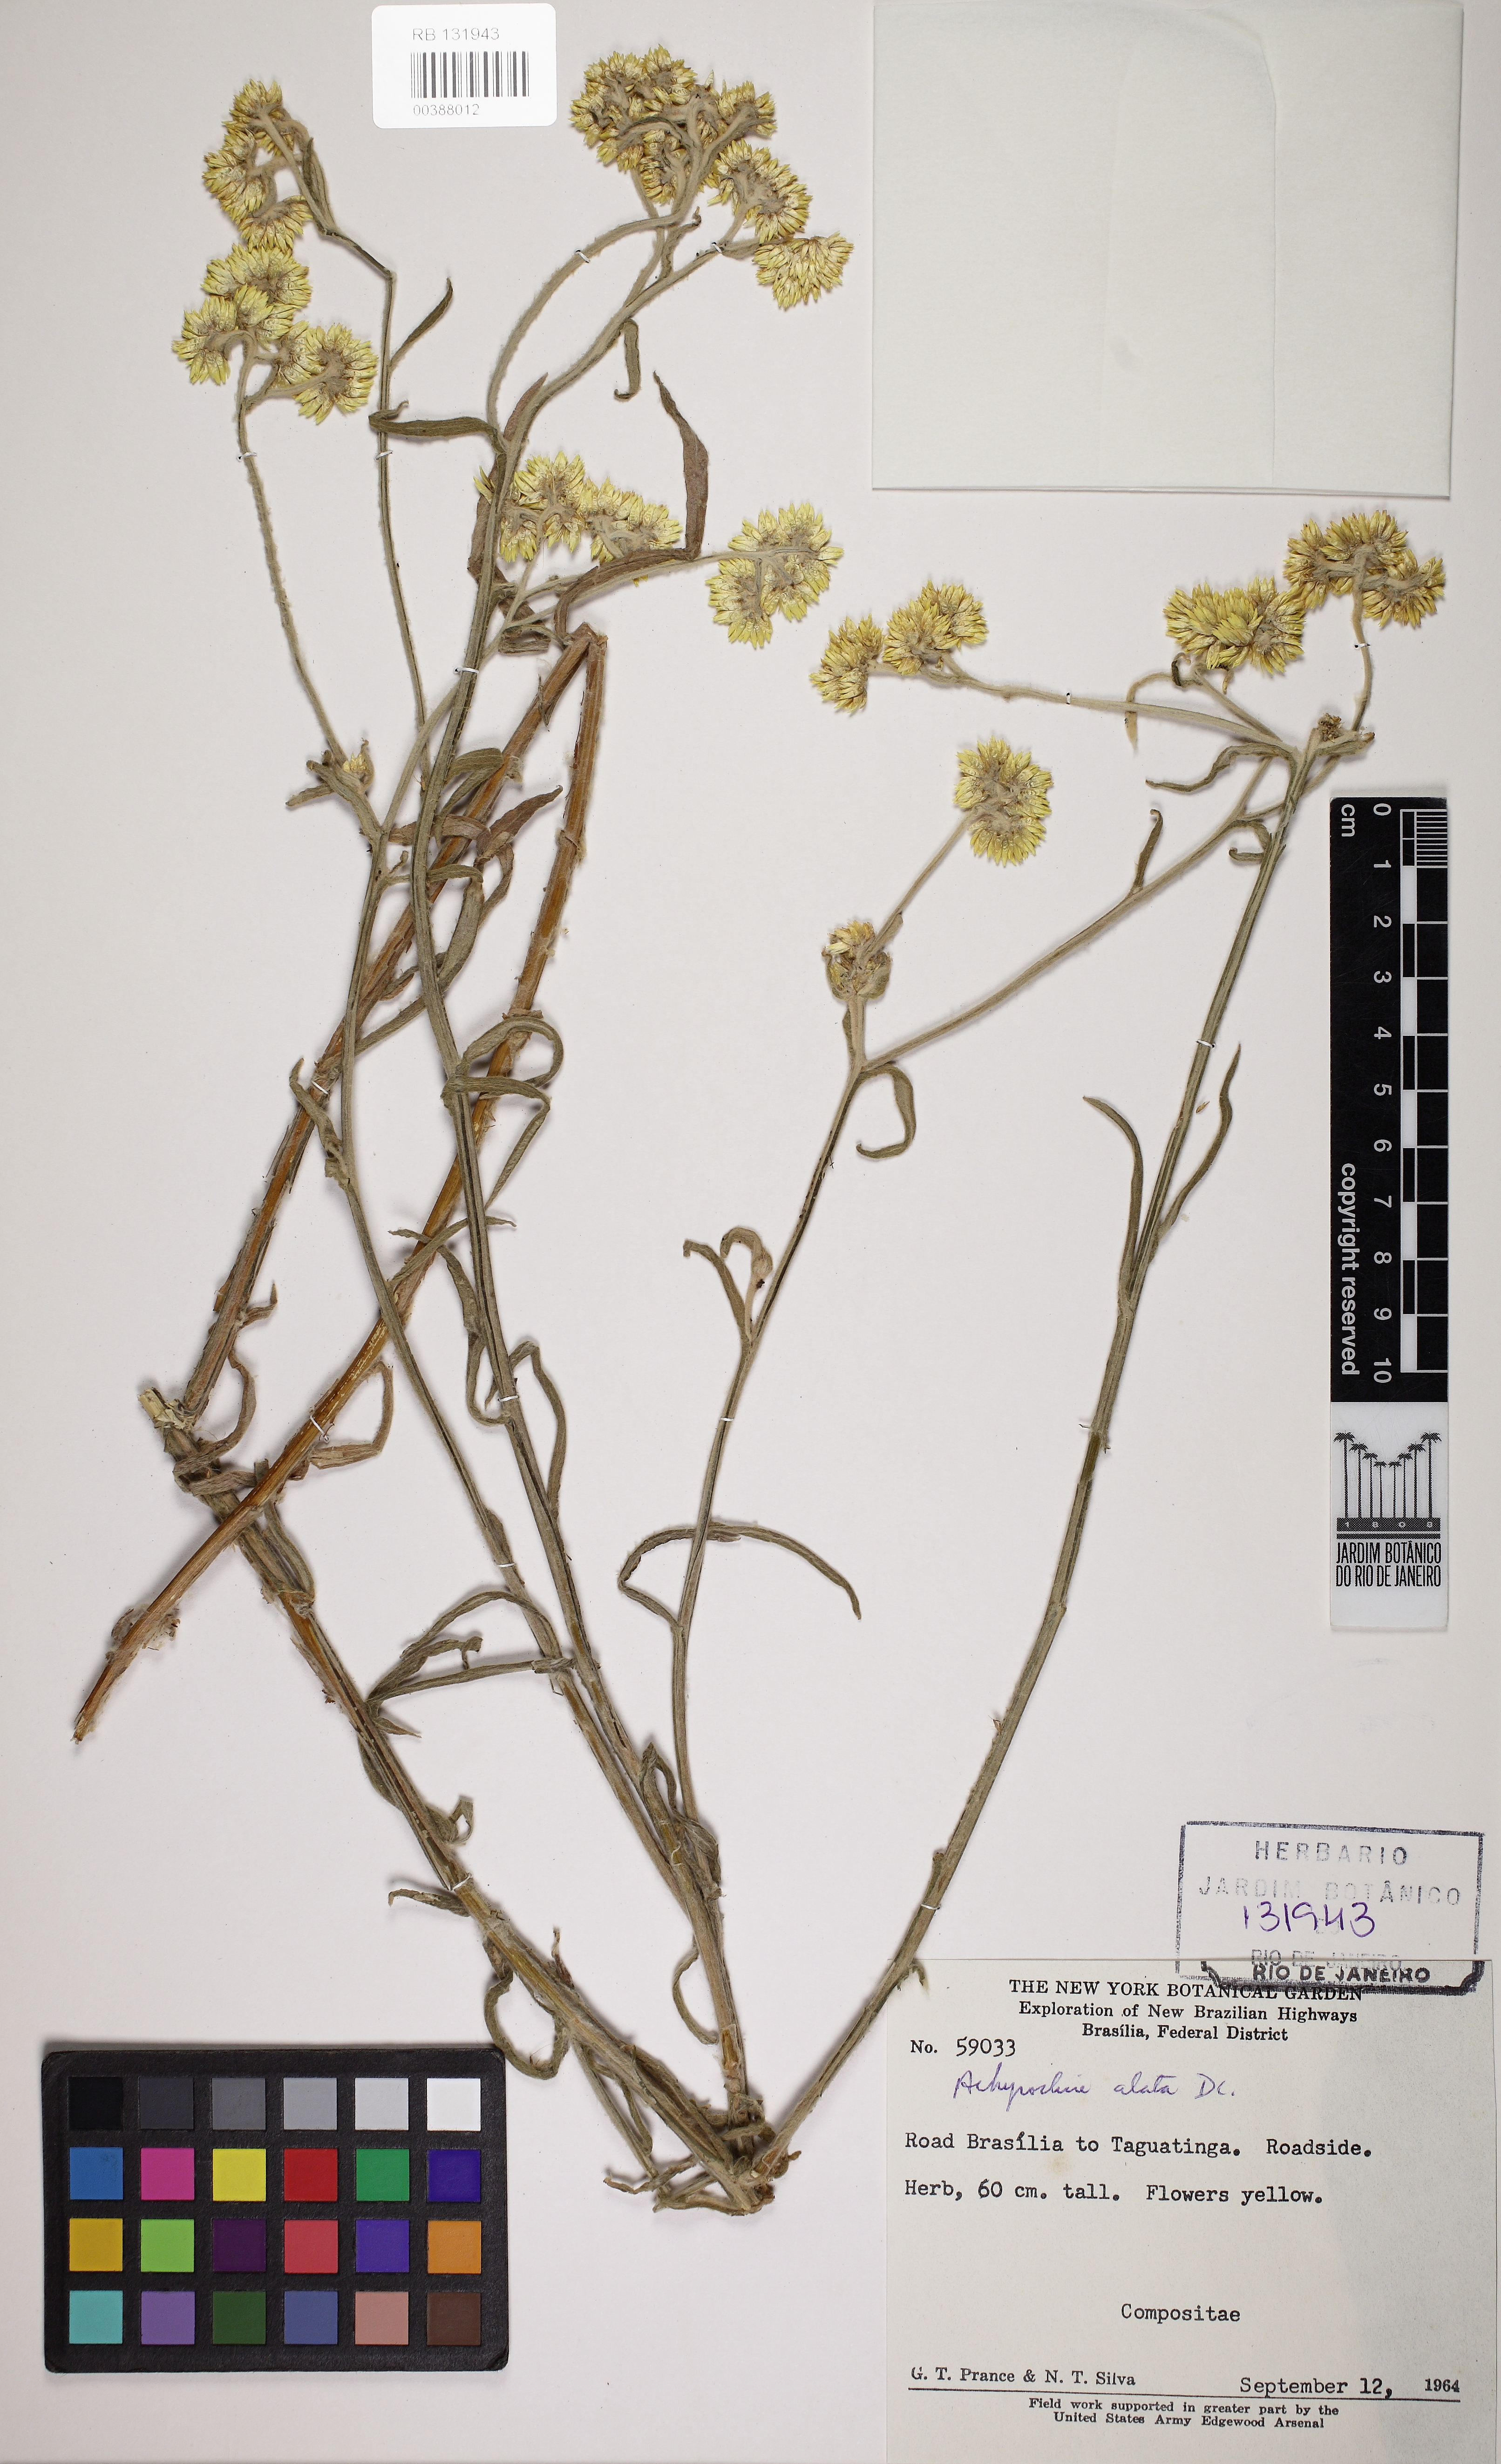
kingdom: Plantae
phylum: Tracheophyta
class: Magnoliopsida
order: Asterales
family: Asteraceae
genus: Achyrocline
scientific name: Achyrocline alata
